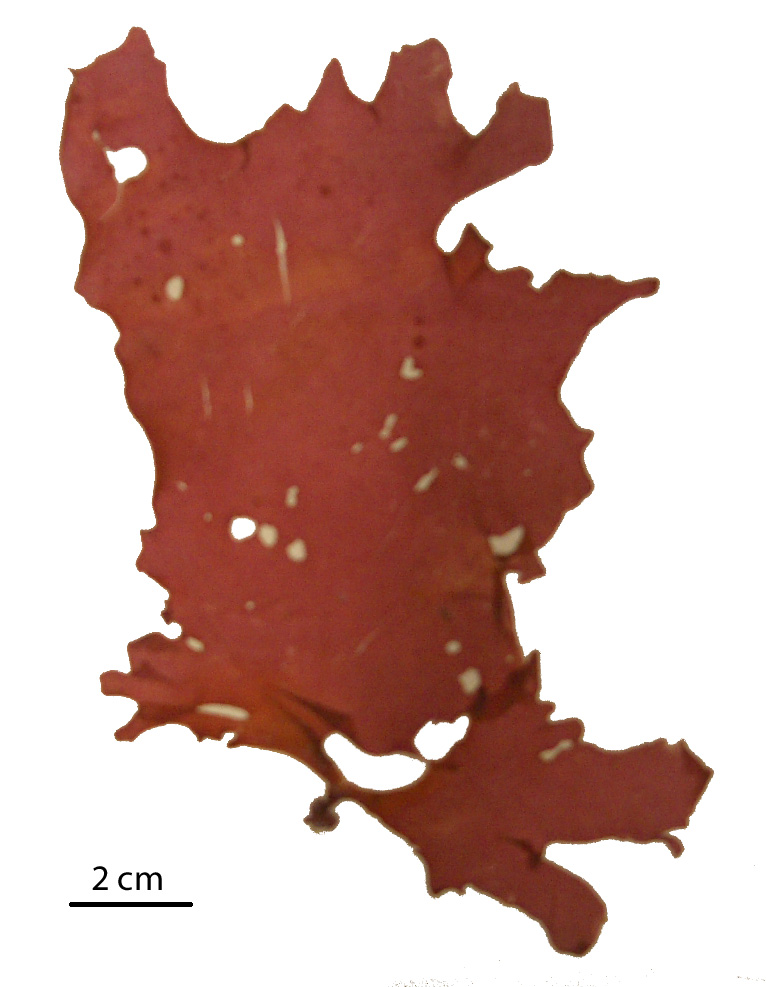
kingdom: Plantae
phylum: Rhodophyta
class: Florideophyceae
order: Gigartinales
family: Kallymeniaceae
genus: Psaromenia
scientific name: Psaromenia berggrenii
